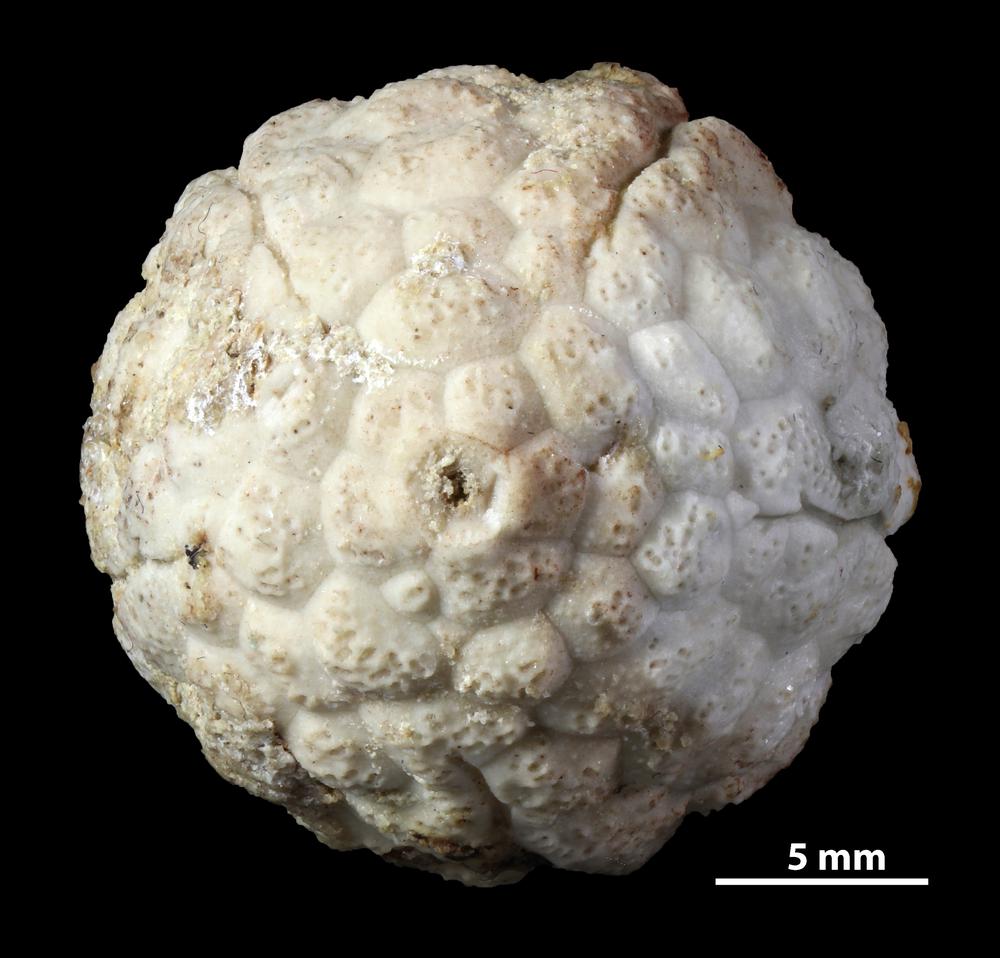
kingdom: Animalia
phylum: Echinodermata
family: Protocrinitidae
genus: Protocrinites
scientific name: Protocrinites oviformis
